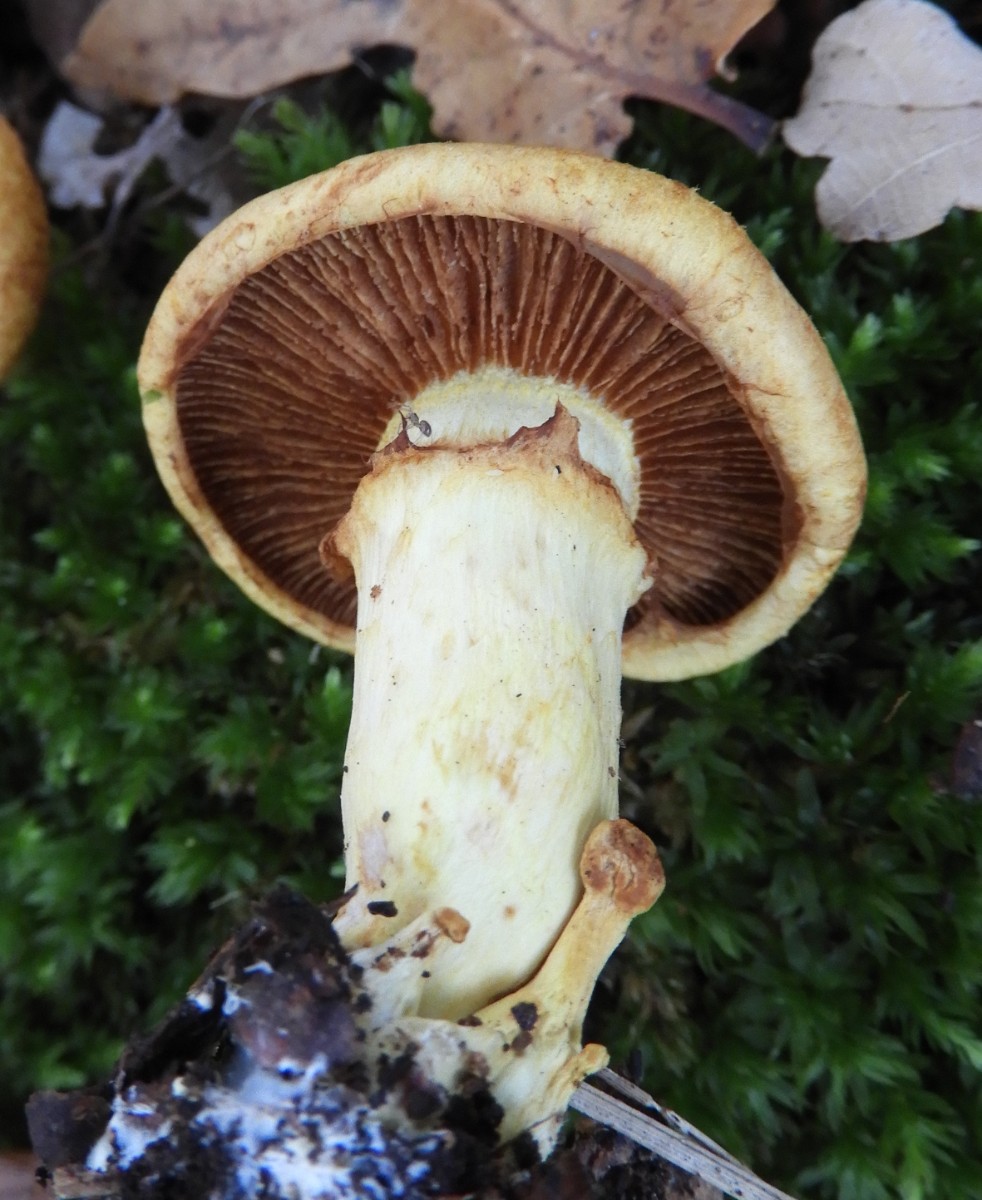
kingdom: Fungi
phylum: Basidiomycota
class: Agaricomycetes
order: Agaricales
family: Hymenogastraceae
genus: Gymnopilus
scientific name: Gymnopilus spectabilis
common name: fibret flammehat
